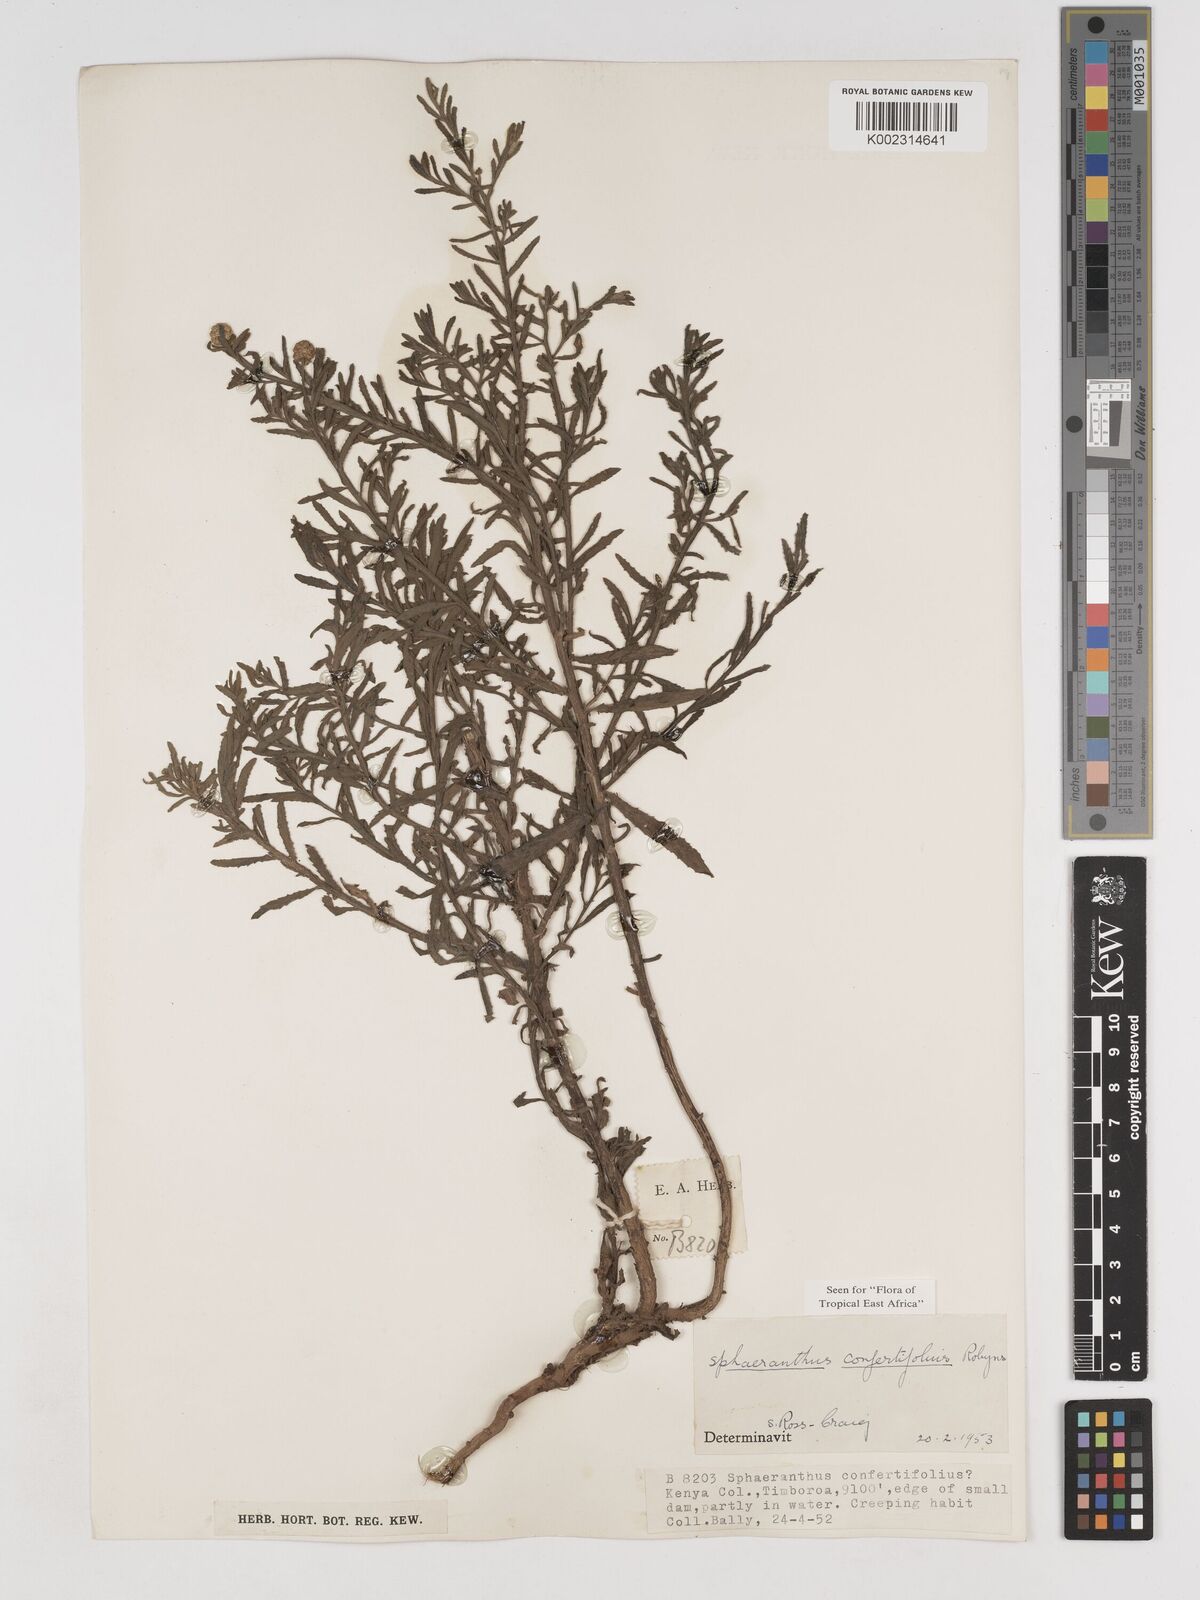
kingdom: Plantae
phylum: Tracheophyta
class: Magnoliopsida
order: Asterales
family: Asteraceae
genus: Sphaeranthus
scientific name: Sphaeranthus confertifolius
